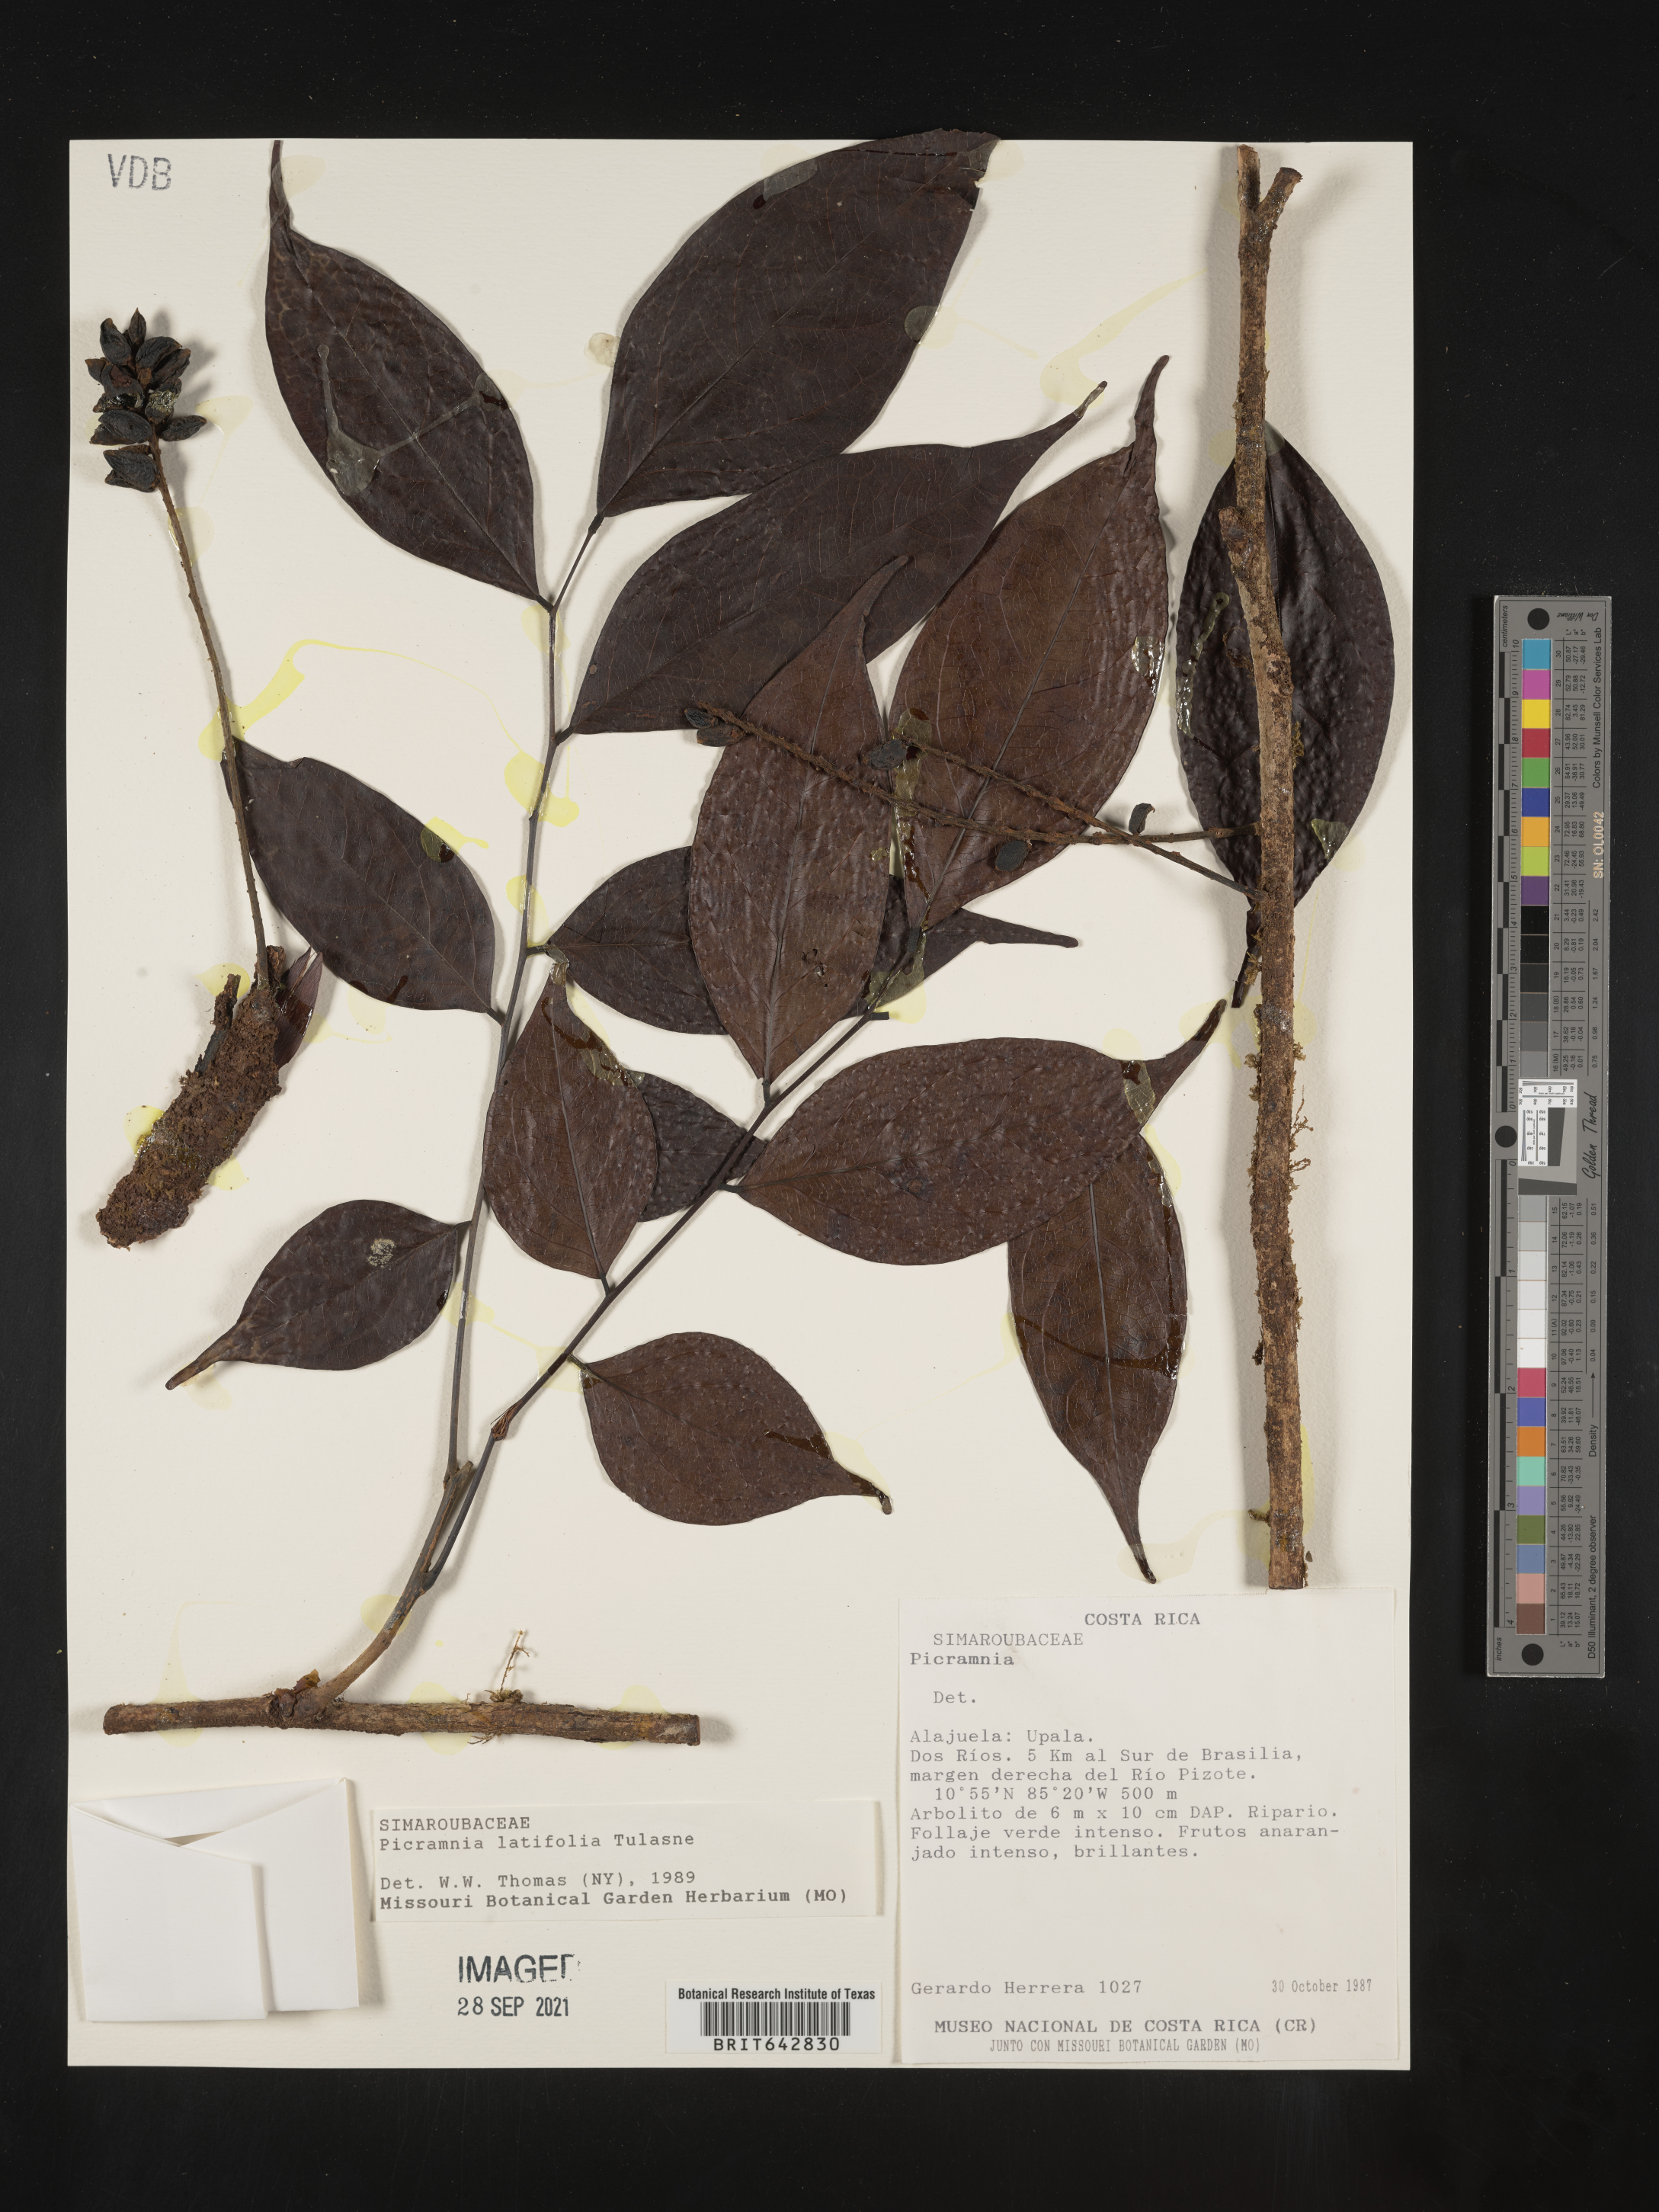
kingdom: Plantae
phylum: Tracheophyta
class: Magnoliopsida
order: Picramniales
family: Picramniaceae
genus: Picramnia
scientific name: Picramnia
